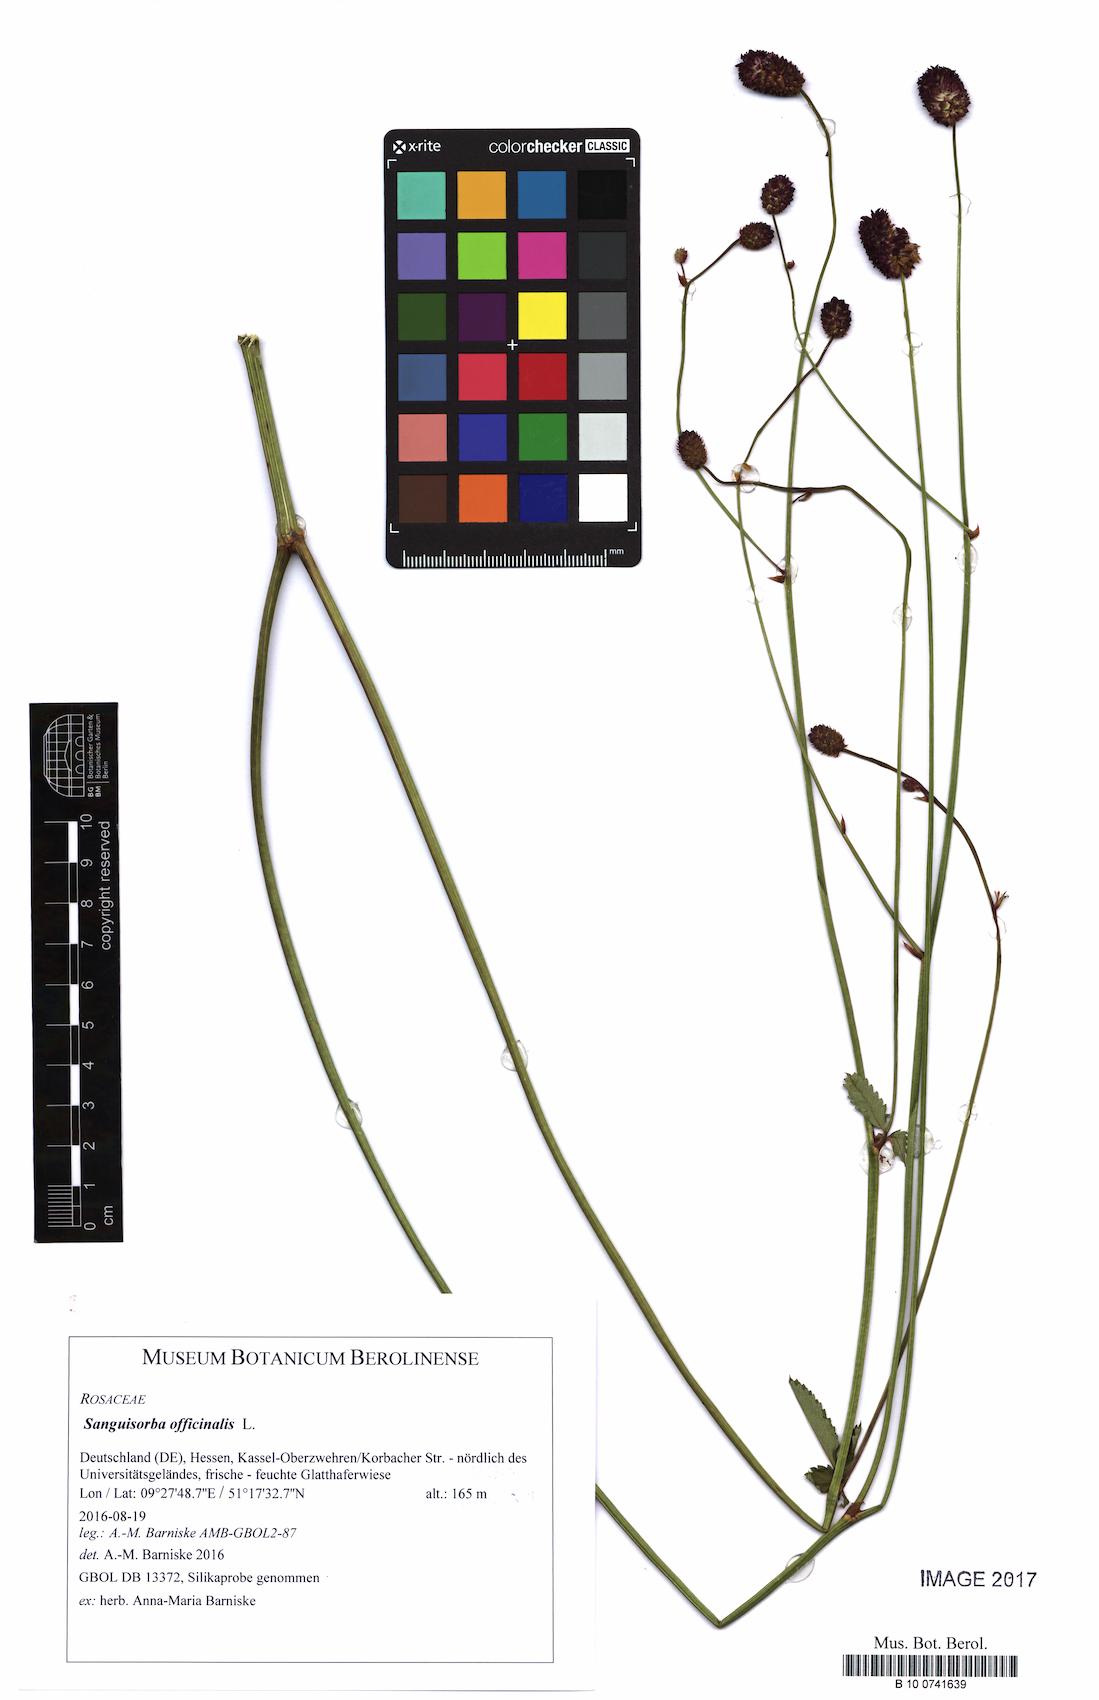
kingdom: Plantae
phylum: Tracheophyta
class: Magnoliopsida
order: Rosales
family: Rosaceae
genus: Sanguisorba
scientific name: Sanguisorba officinalis
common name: Great burnet
